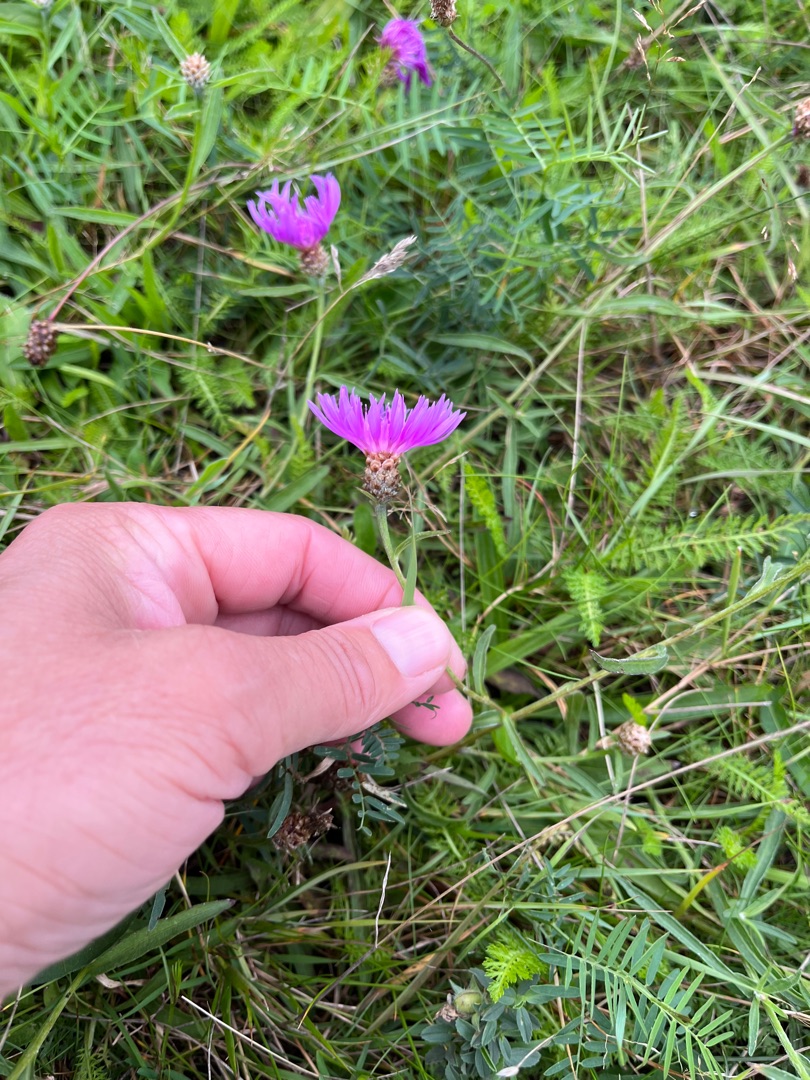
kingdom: Plantae
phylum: Tracheophyta
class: Magnoliopsida
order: Asterales
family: Asteraceae
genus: Centaurea
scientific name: Centaurea jacea
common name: Almindelig knopurt
